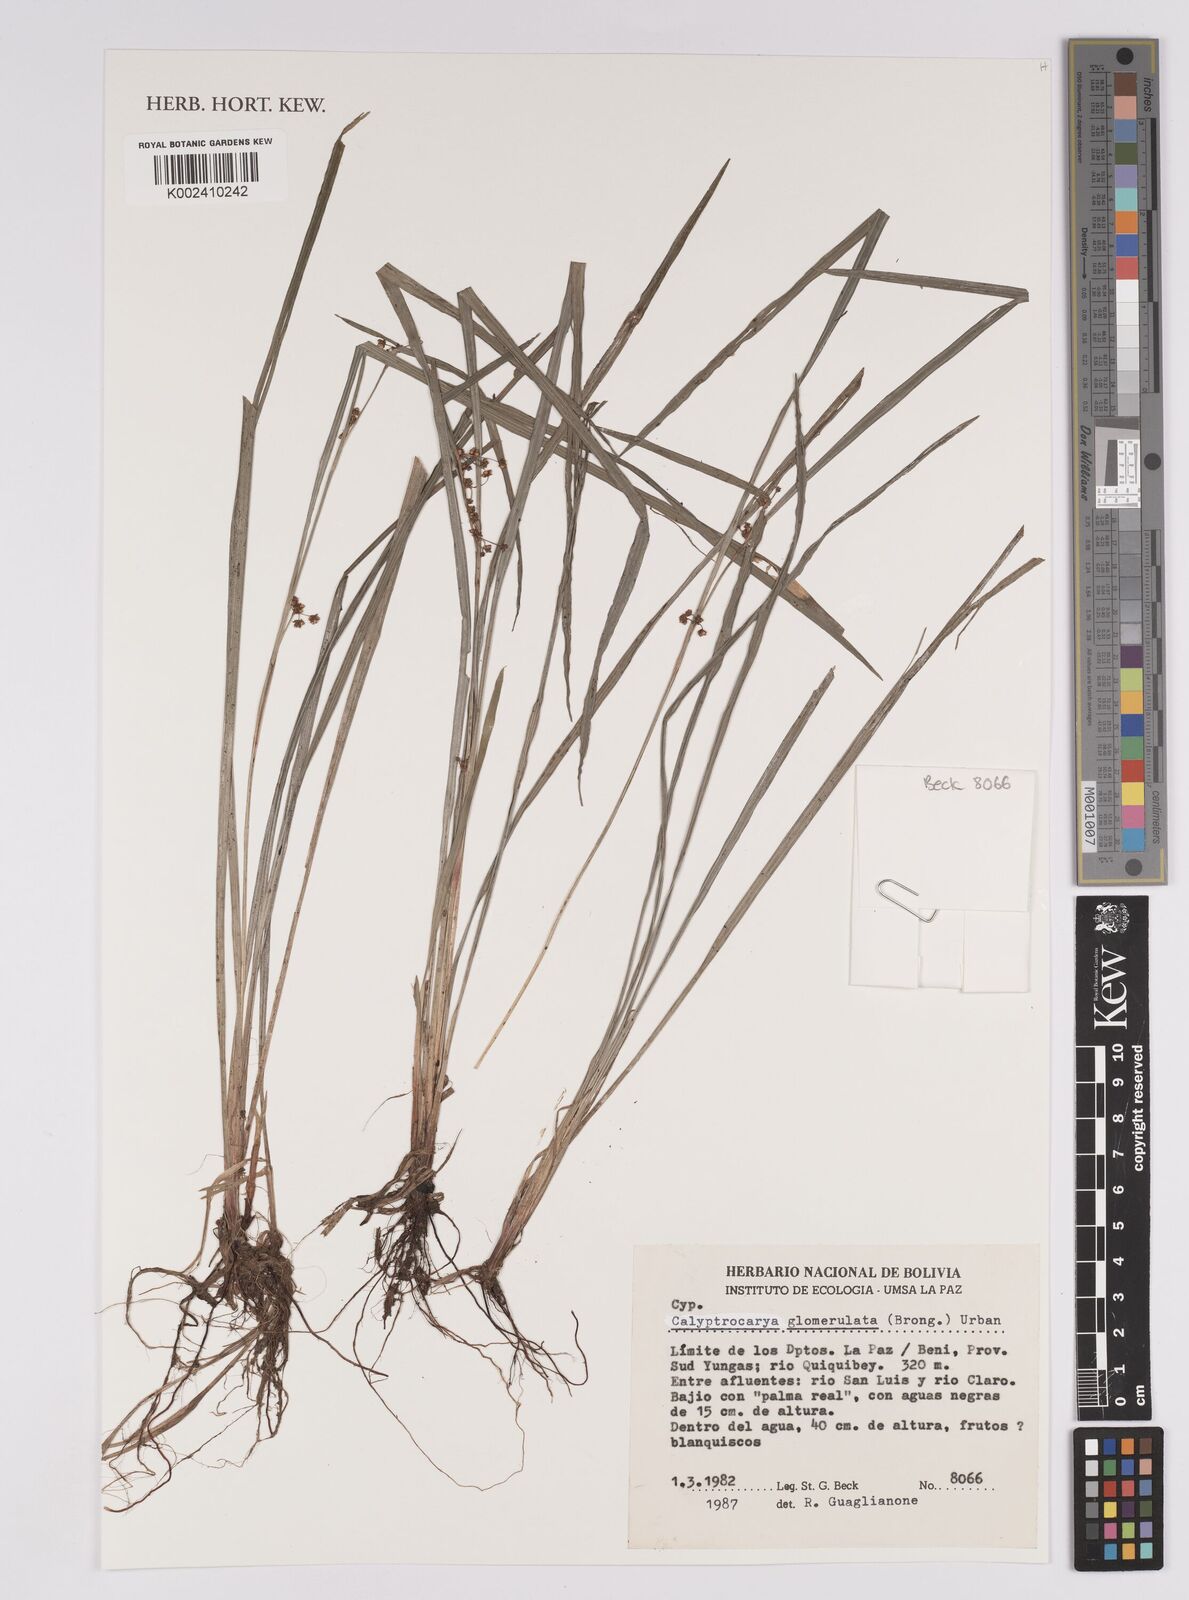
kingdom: Plantae
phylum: Tracheophyta
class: Liliopsida
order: Poales
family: Cyperaceae
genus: Calyptrocarya
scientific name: Calyptrocarya glomerulata
